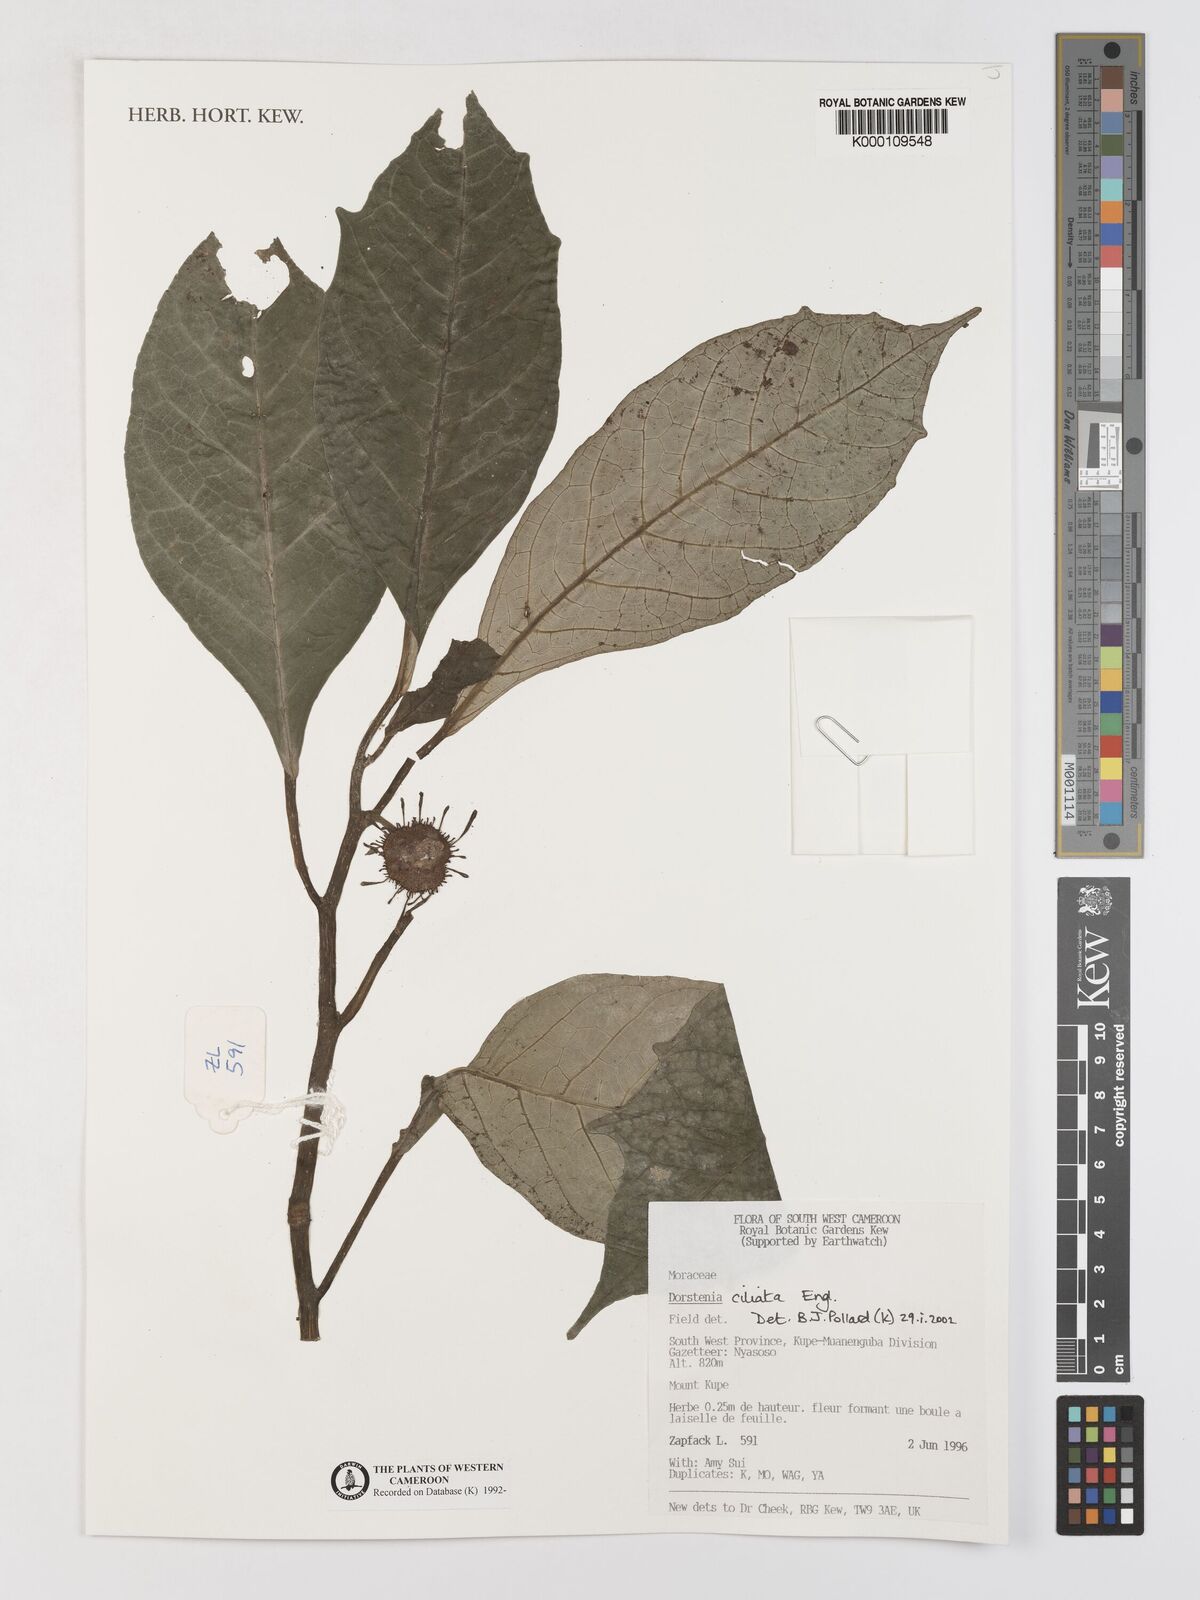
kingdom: Plantae
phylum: Tracheophyta
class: Magnoliopsida
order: Rosales
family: Moraceae
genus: Dorstenia
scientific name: Dorstenia ciliata
